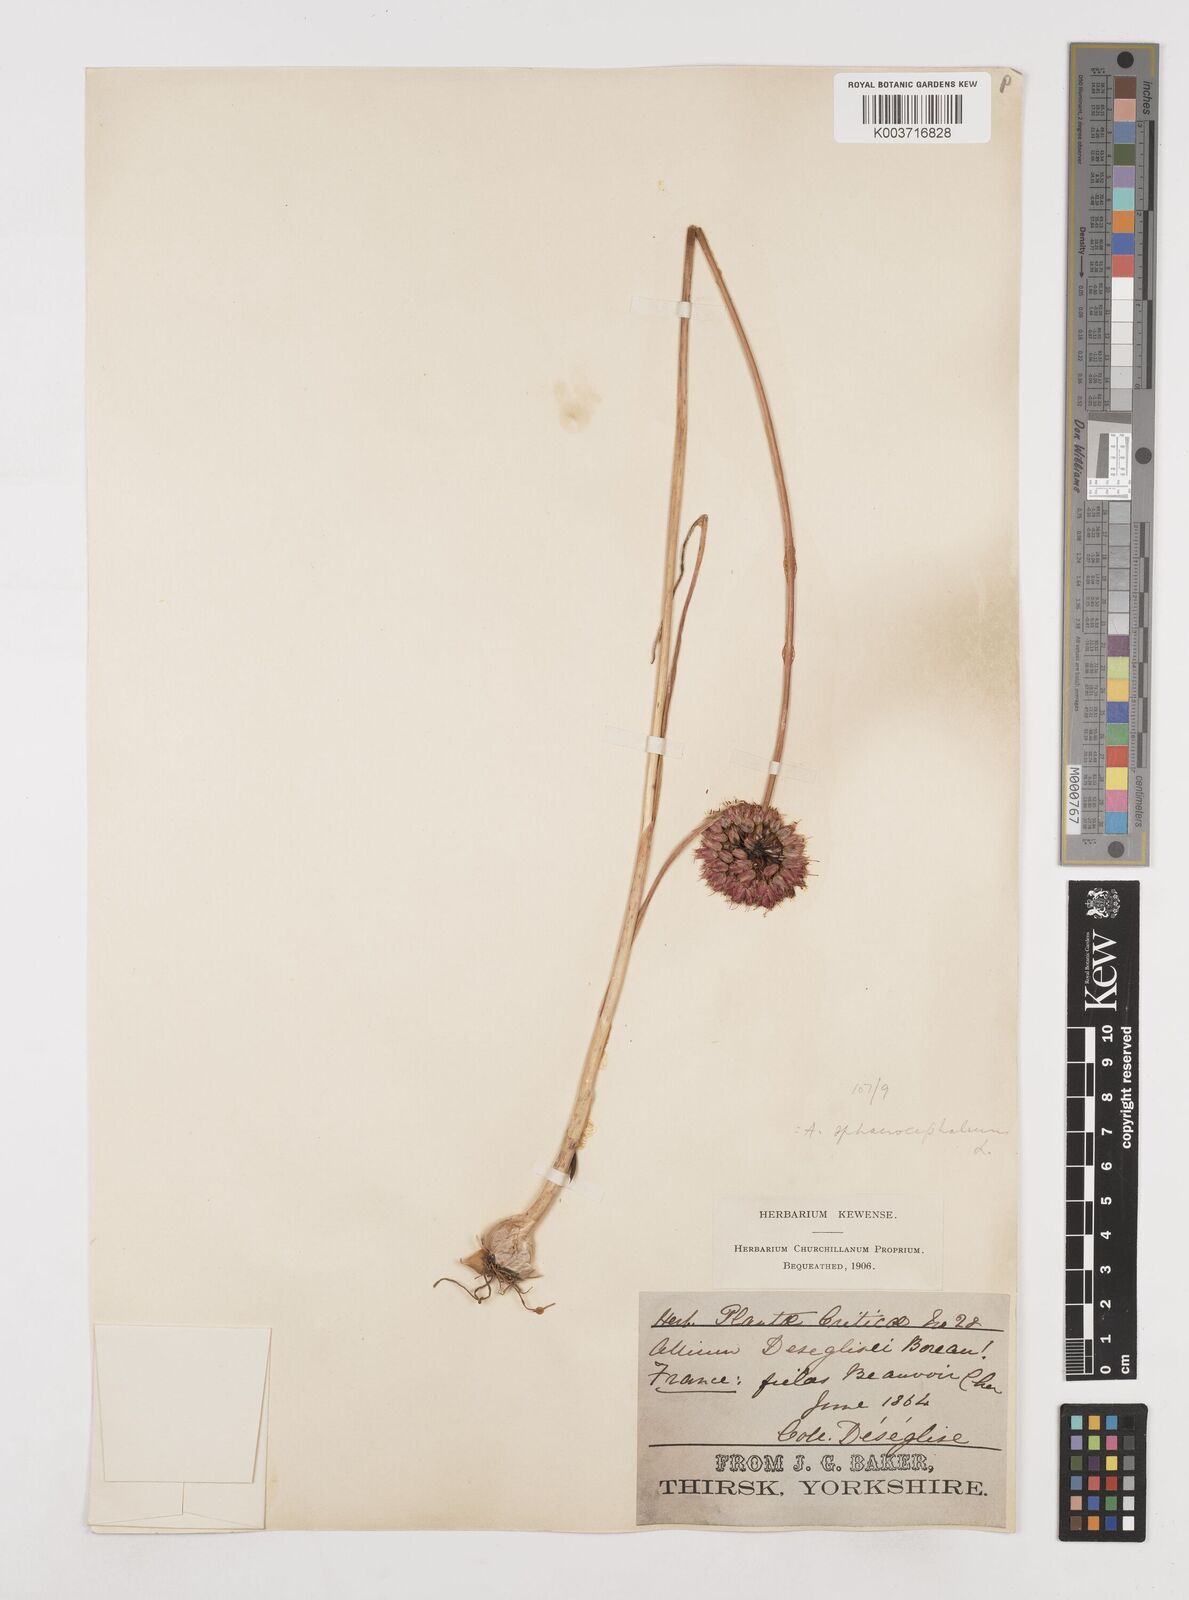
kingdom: Plantae
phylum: Tracheophyta
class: Liliopsida
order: Asparagales
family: Amaryllidaceae
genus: Allium
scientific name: Allium sphaerocephalon
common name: Round-headed leek
